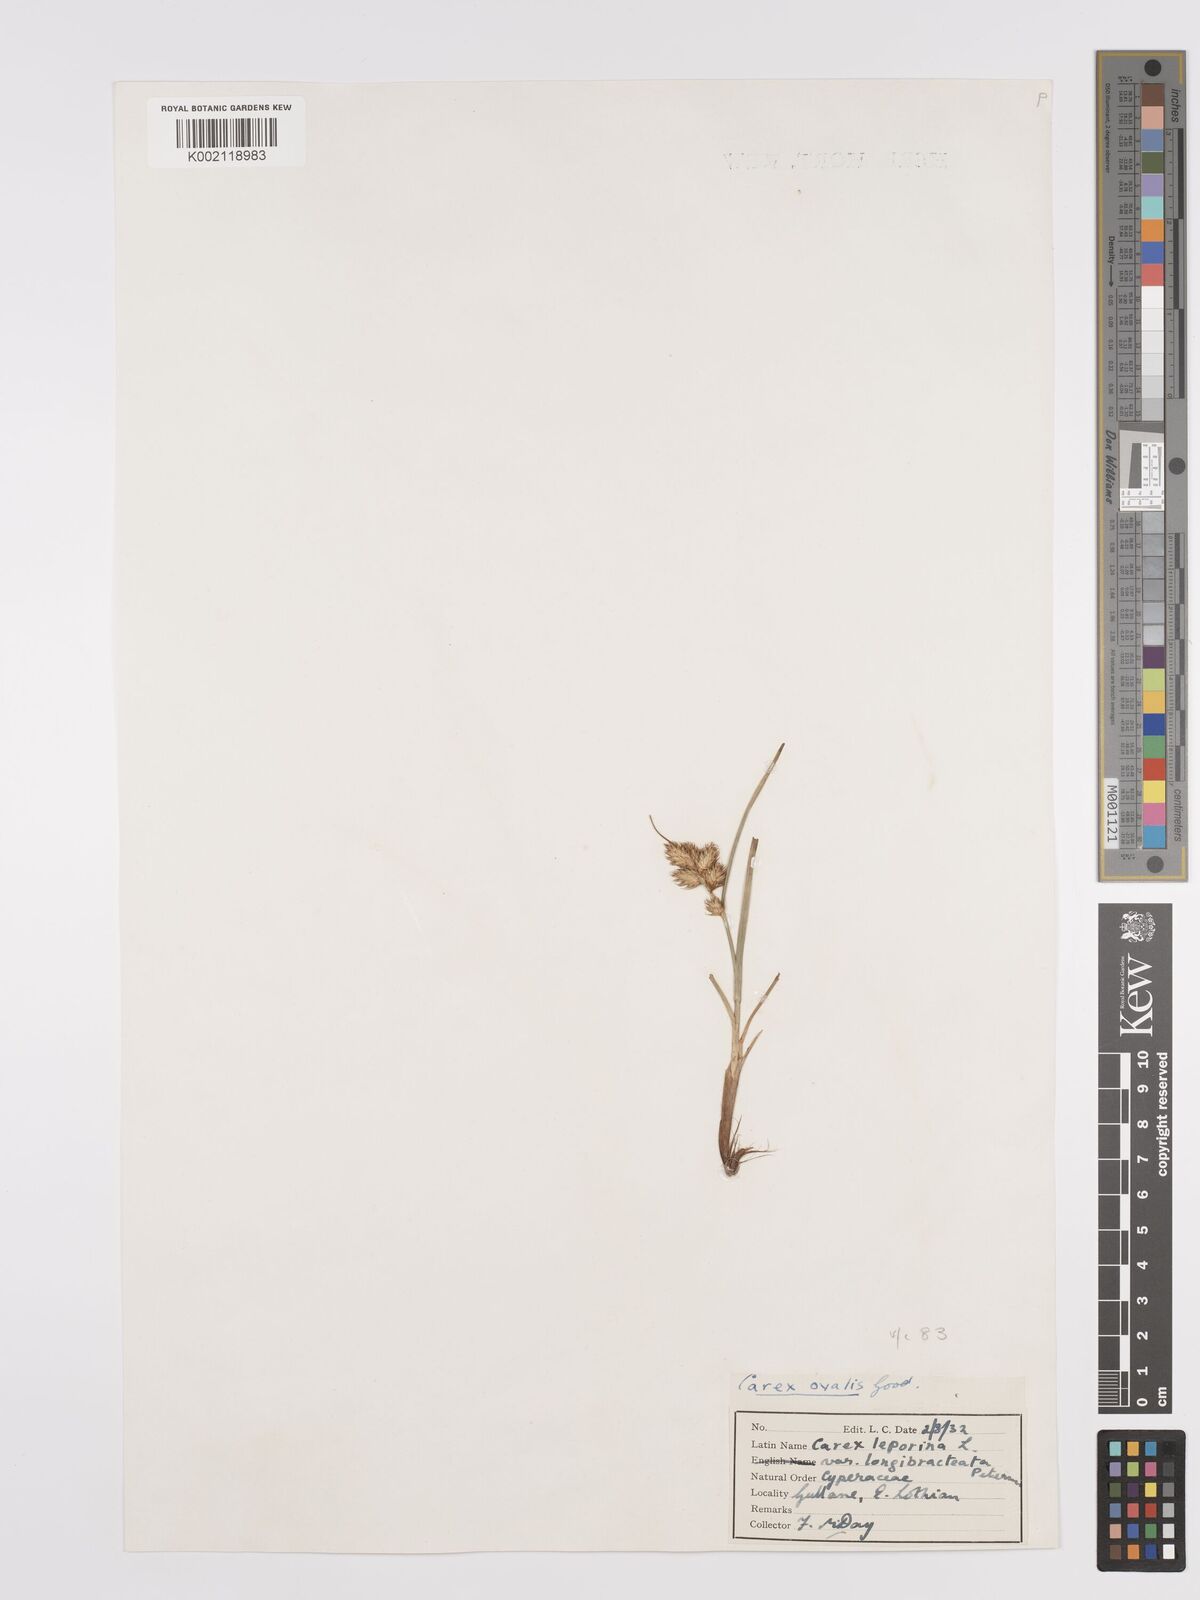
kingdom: Plantae
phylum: Tracheophyta
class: Liliopsida
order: Poales
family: Cyperaceae
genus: Carex
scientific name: Carex leporina
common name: Oval sedge
